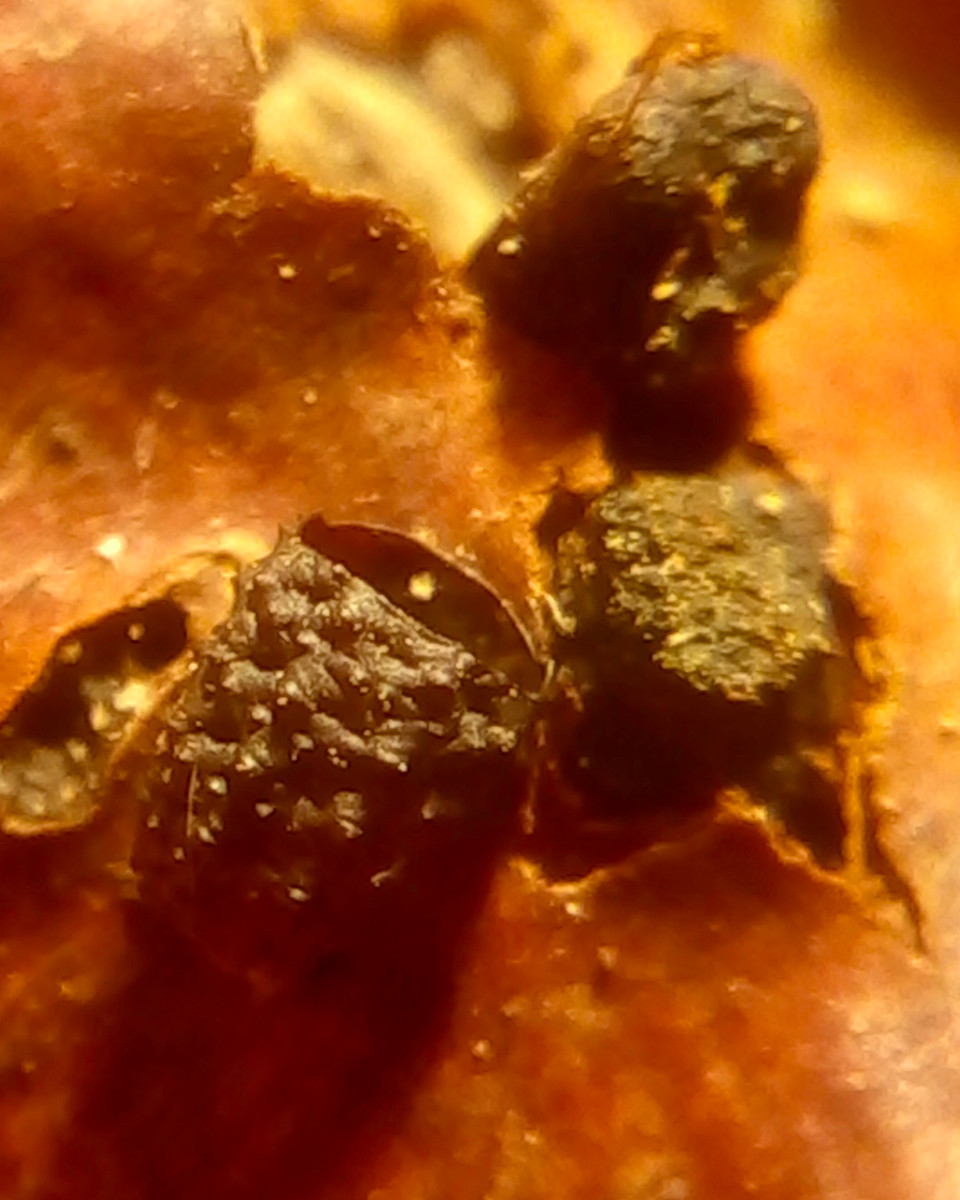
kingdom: Fungi
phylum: Ascomycota
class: Sordariomycetes
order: Xylariales
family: Diatrypaceae
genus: Eutypella
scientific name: Eutypella prunastri
